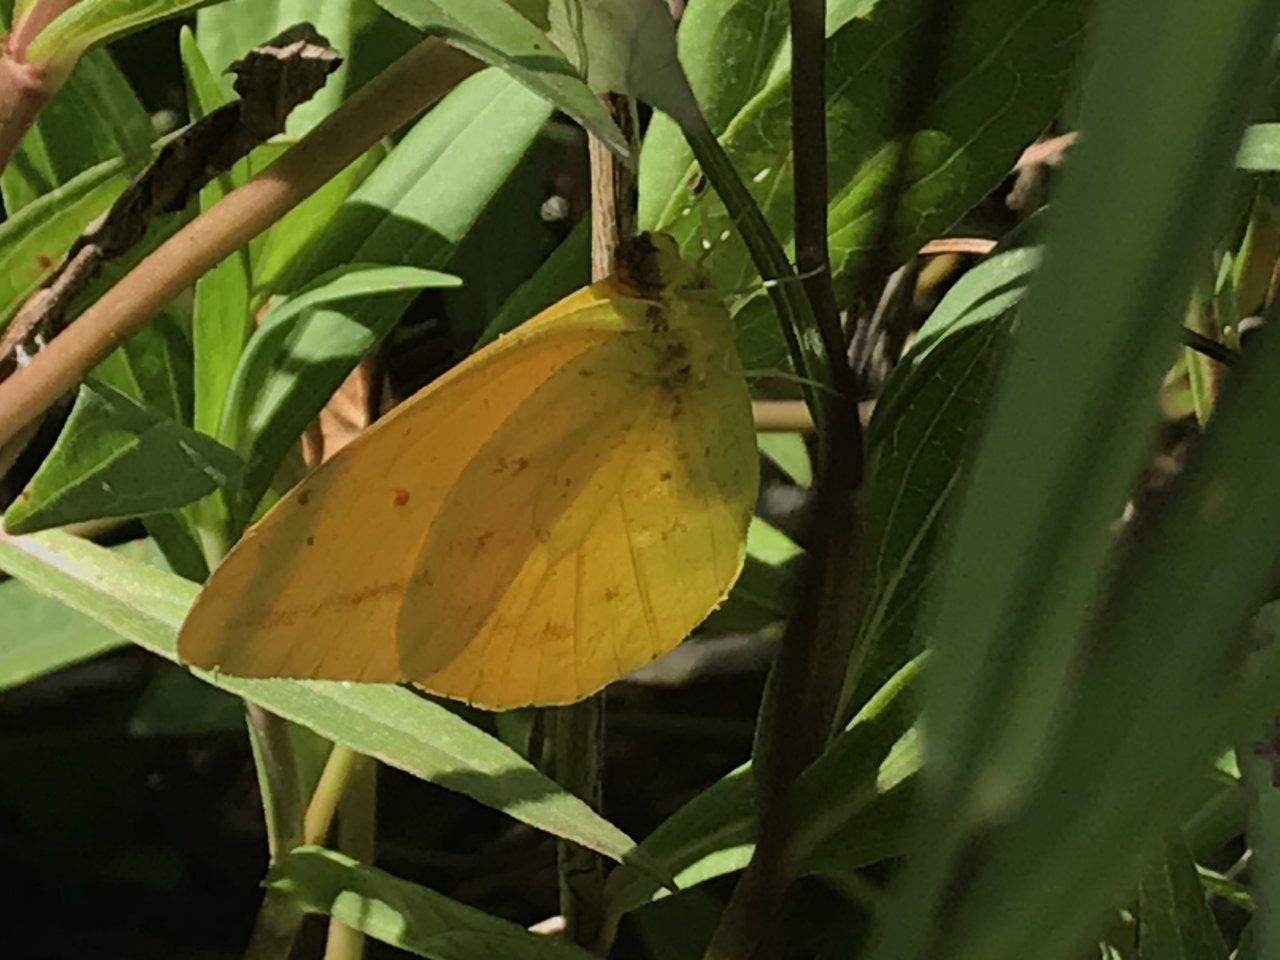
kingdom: Animalia
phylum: Arthropoda
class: Insecta
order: Lepidoptera
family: Pieridae
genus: Phoebis
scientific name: Phoebis agarithe
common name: Large Orange Sulphur
